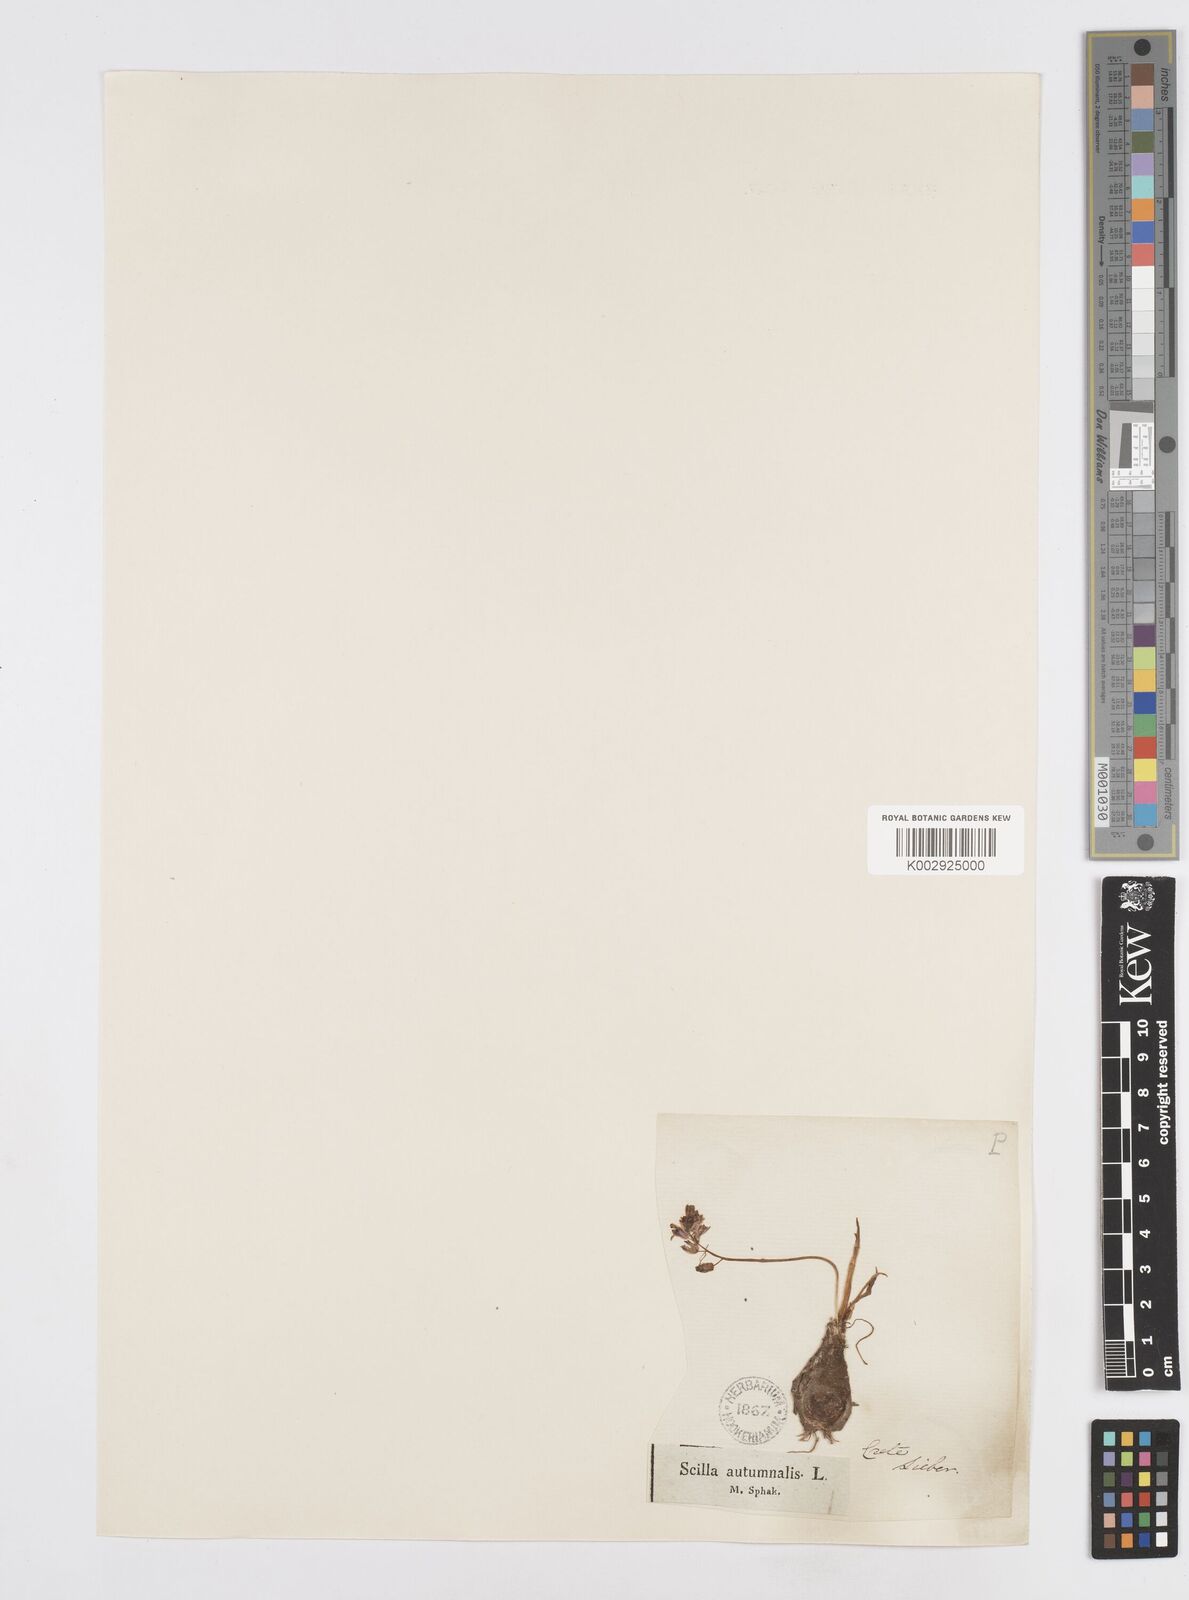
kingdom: Plantae
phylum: Tracheophyta
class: Liliopsida
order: Asparagales
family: Asparagaceae
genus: Prospero
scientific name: Prospero autumnale
